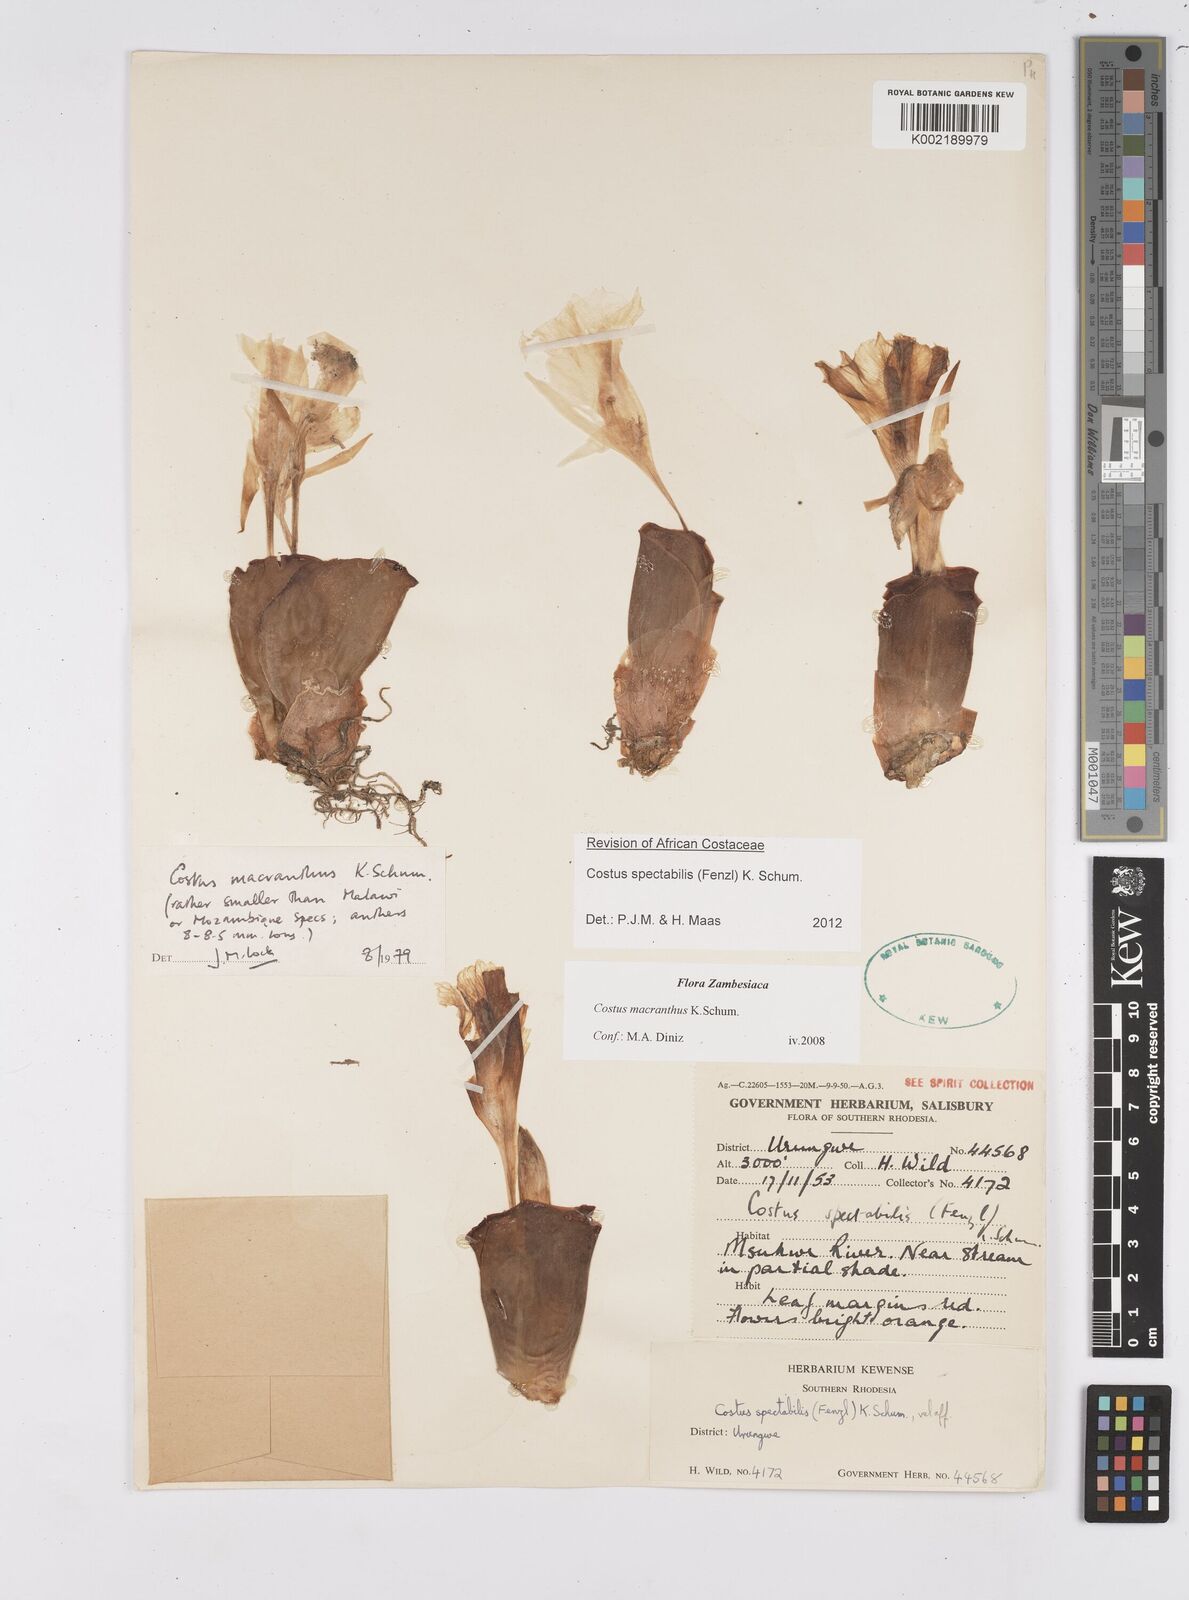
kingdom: Plantae
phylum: Tracheophyta
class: Liliopsida
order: Zingiberales
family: Costaceae
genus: Costus
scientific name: Costus spectabilis
